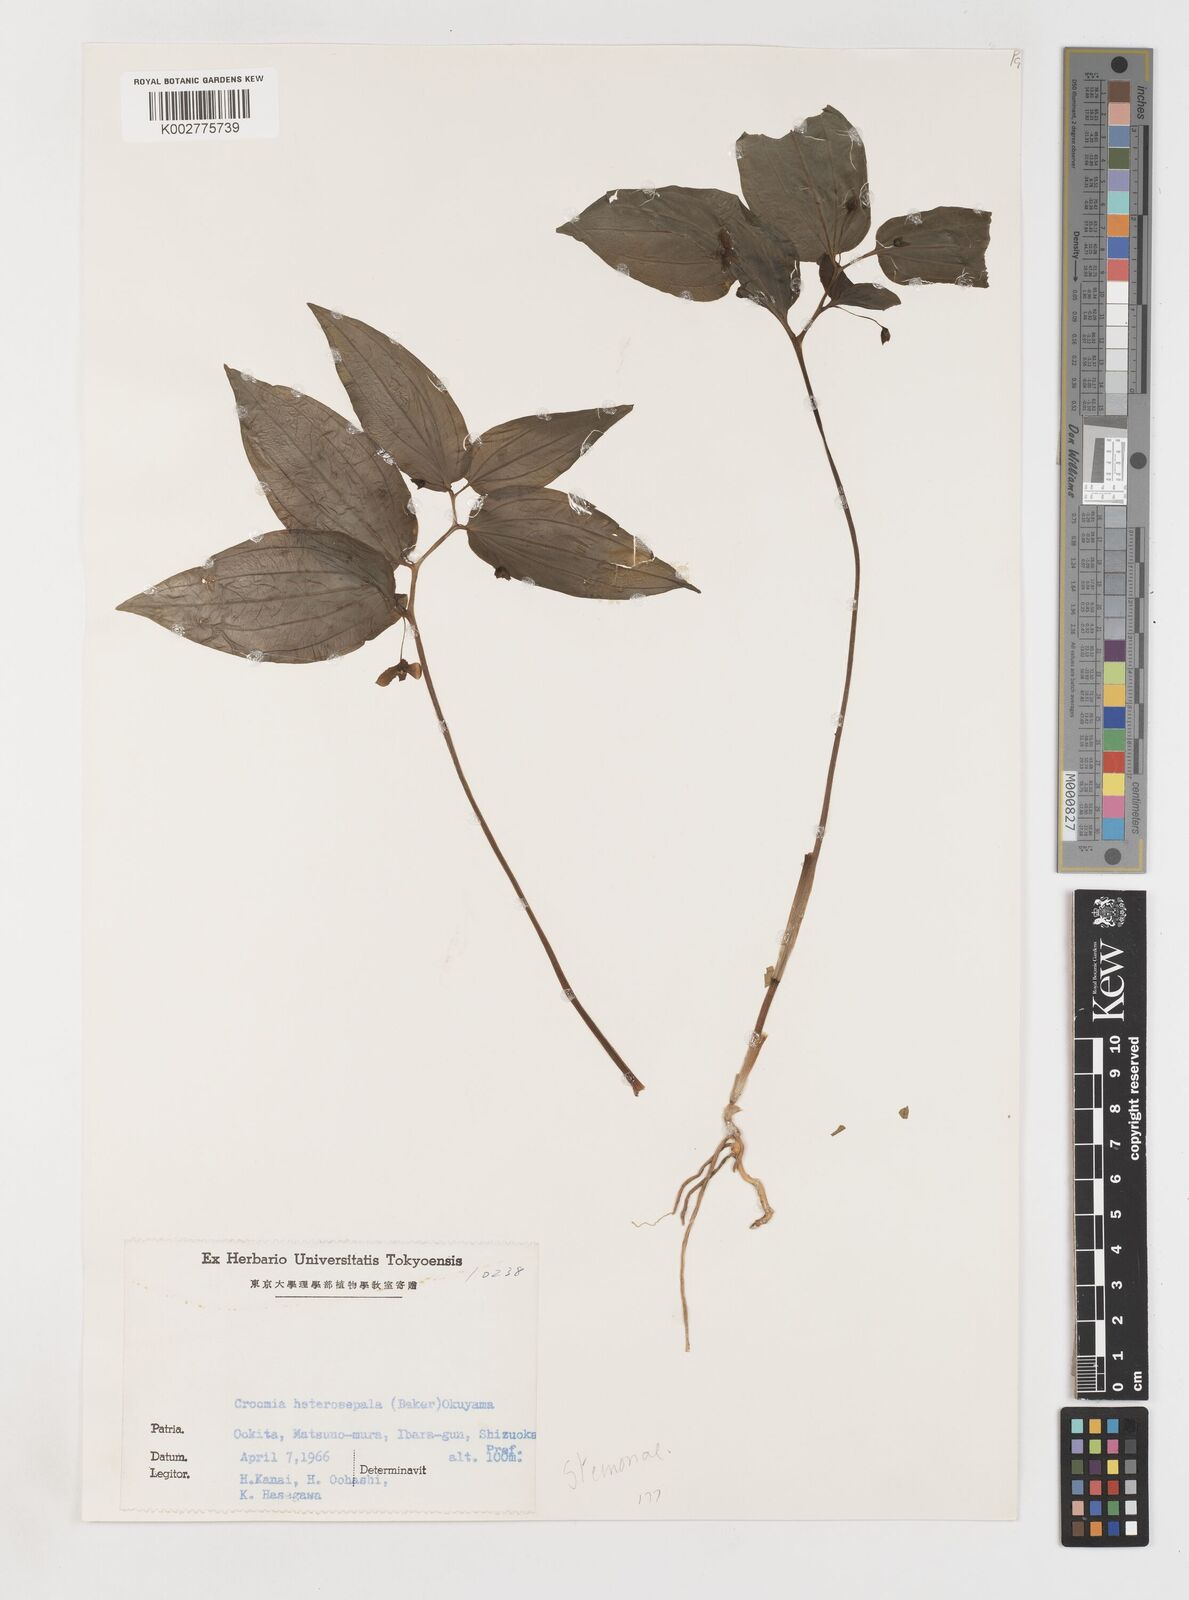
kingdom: Plantae
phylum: Tracheophyta
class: Liliopsida
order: Pandanales
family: Stemonaceae
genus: Croomia
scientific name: Croomia heterosepala
